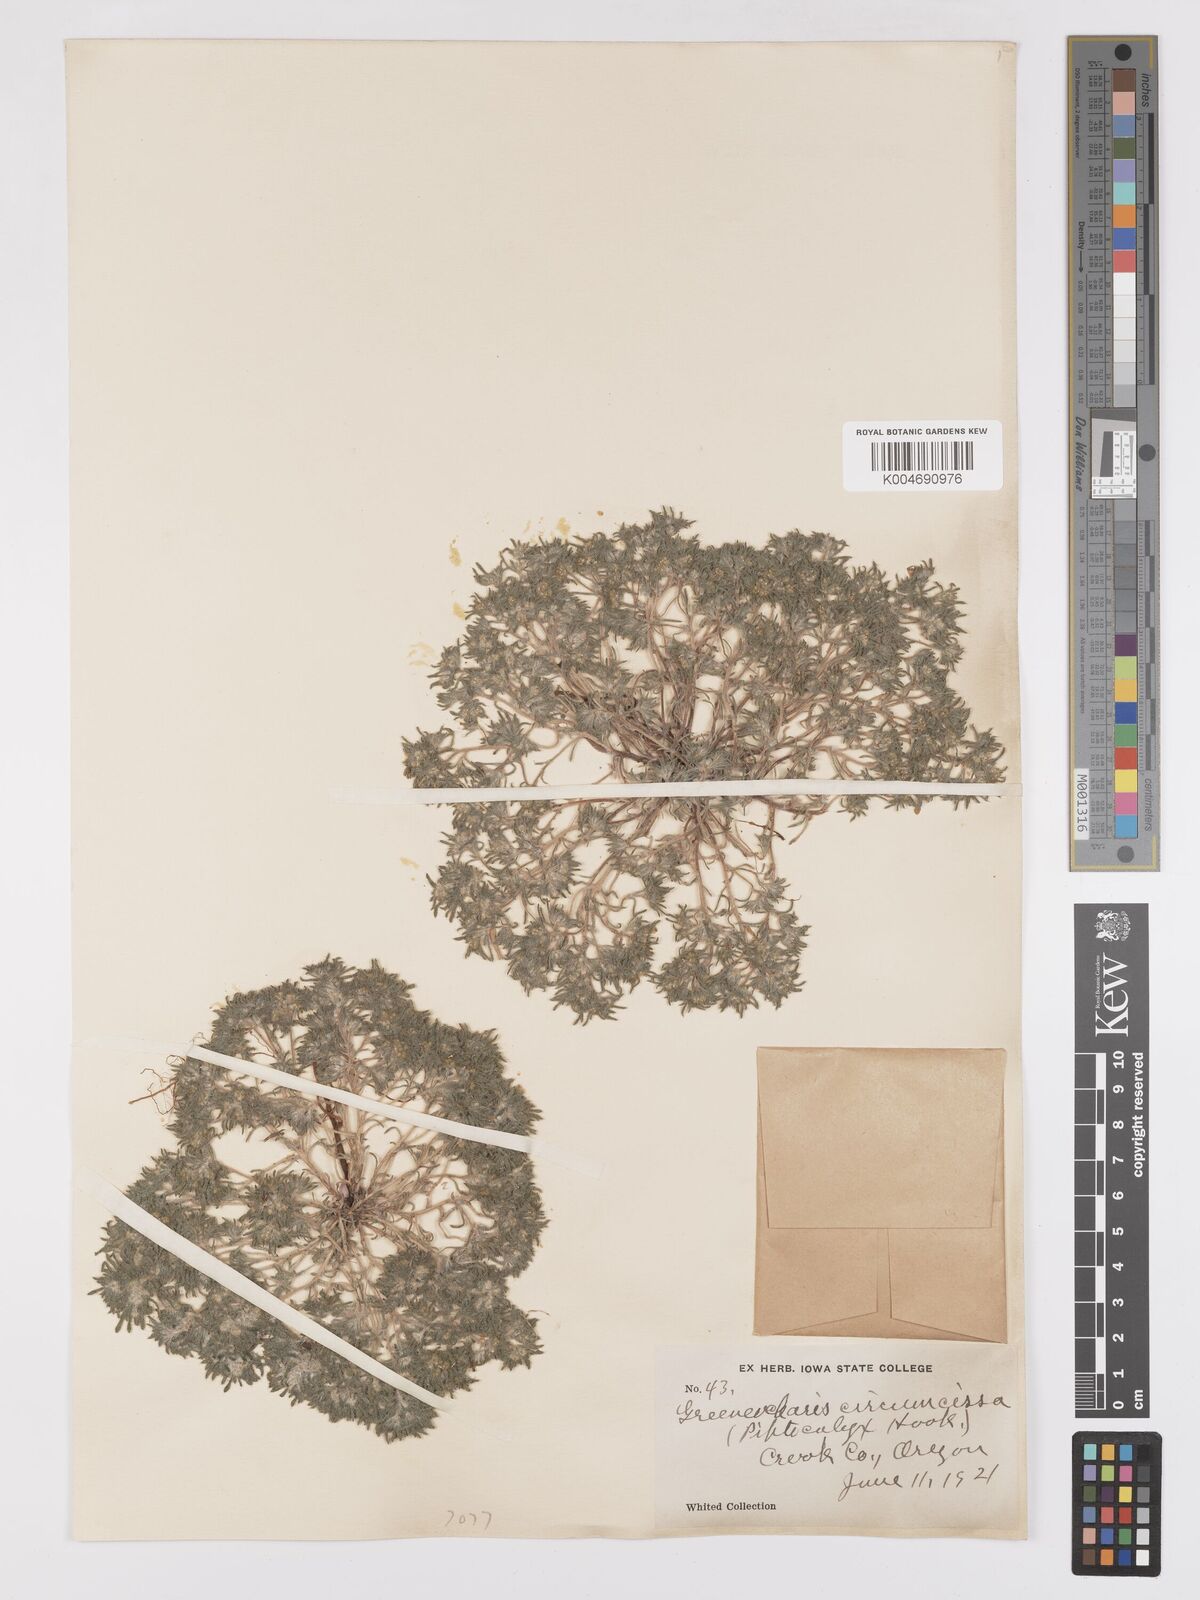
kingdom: Plantae
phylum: Tracheophyta
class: Magnoliopsida
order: Boraginales
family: Boraginaceae
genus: Greeneocharis
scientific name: Greeneocharis circumscissa
